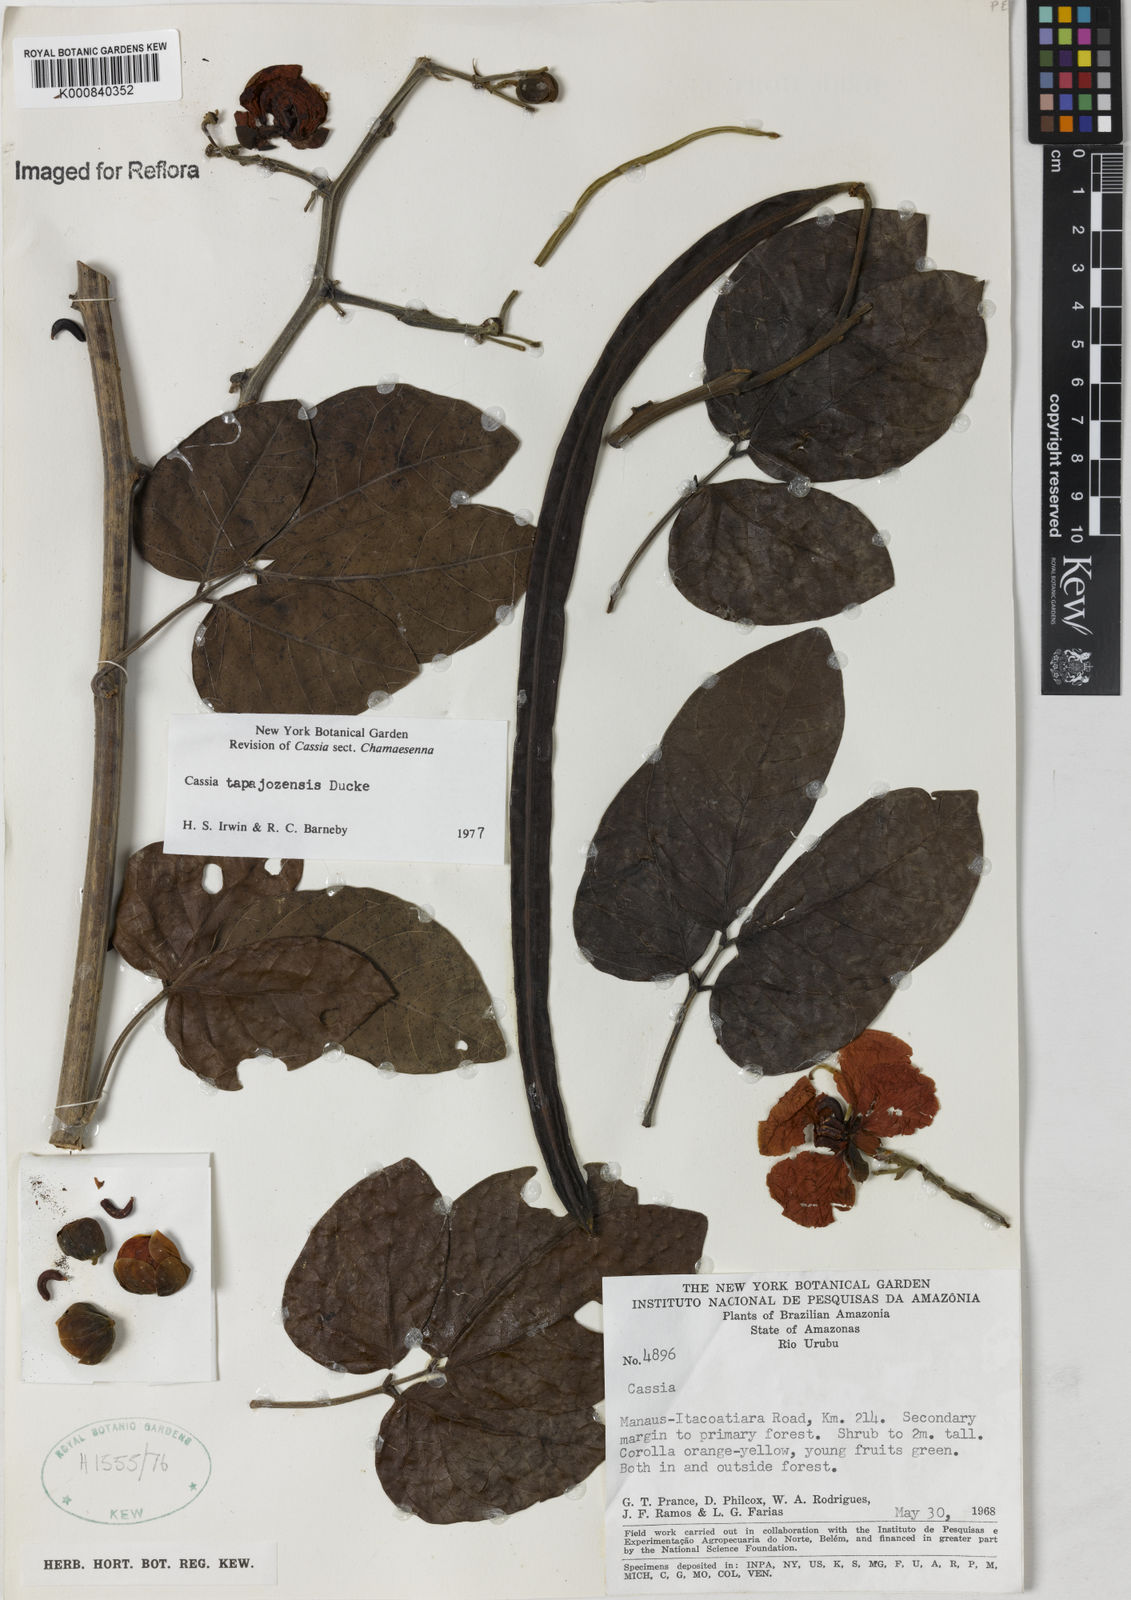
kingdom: Plantae
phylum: Tracheophyta
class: Magnoliopsida
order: Fabales
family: Fabaceae
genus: Senna
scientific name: Senna tapajozensis
